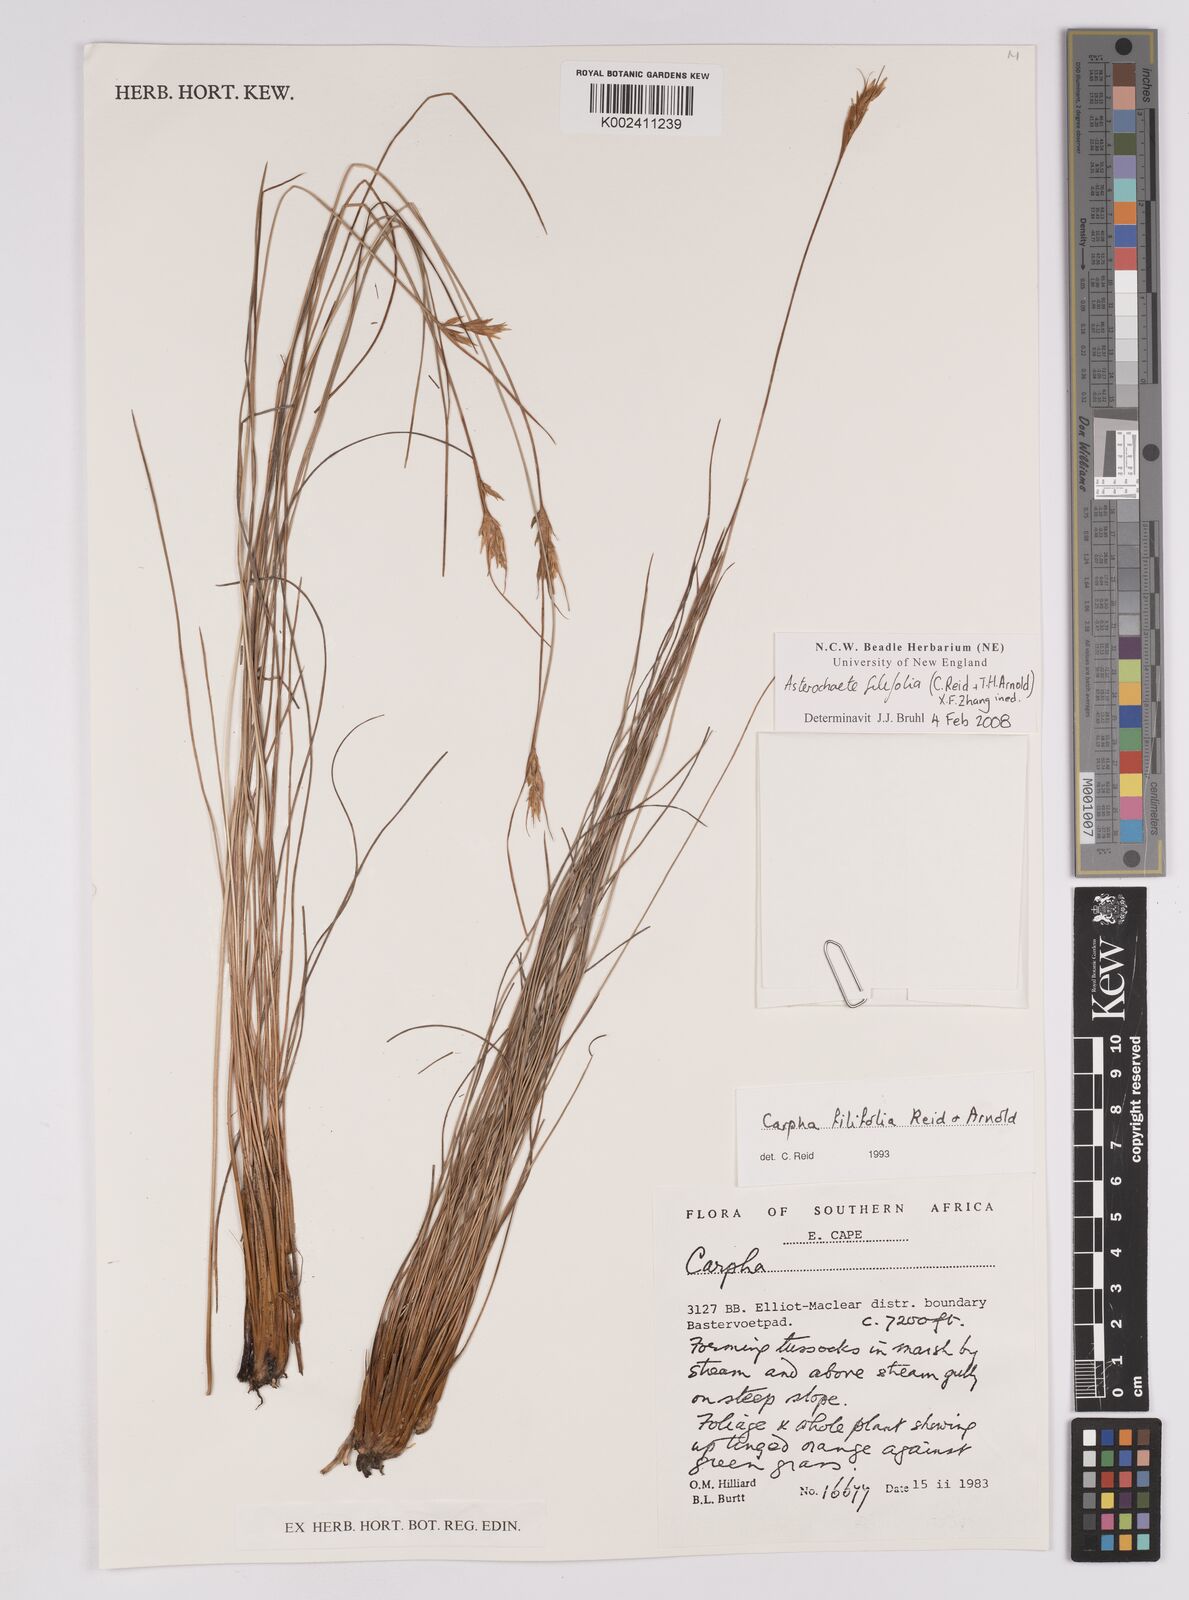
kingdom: Plantae
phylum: Tracheophyta
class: Liliopsida
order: Poales
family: Cyperaceae
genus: Carpha
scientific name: Carpha filifolia
